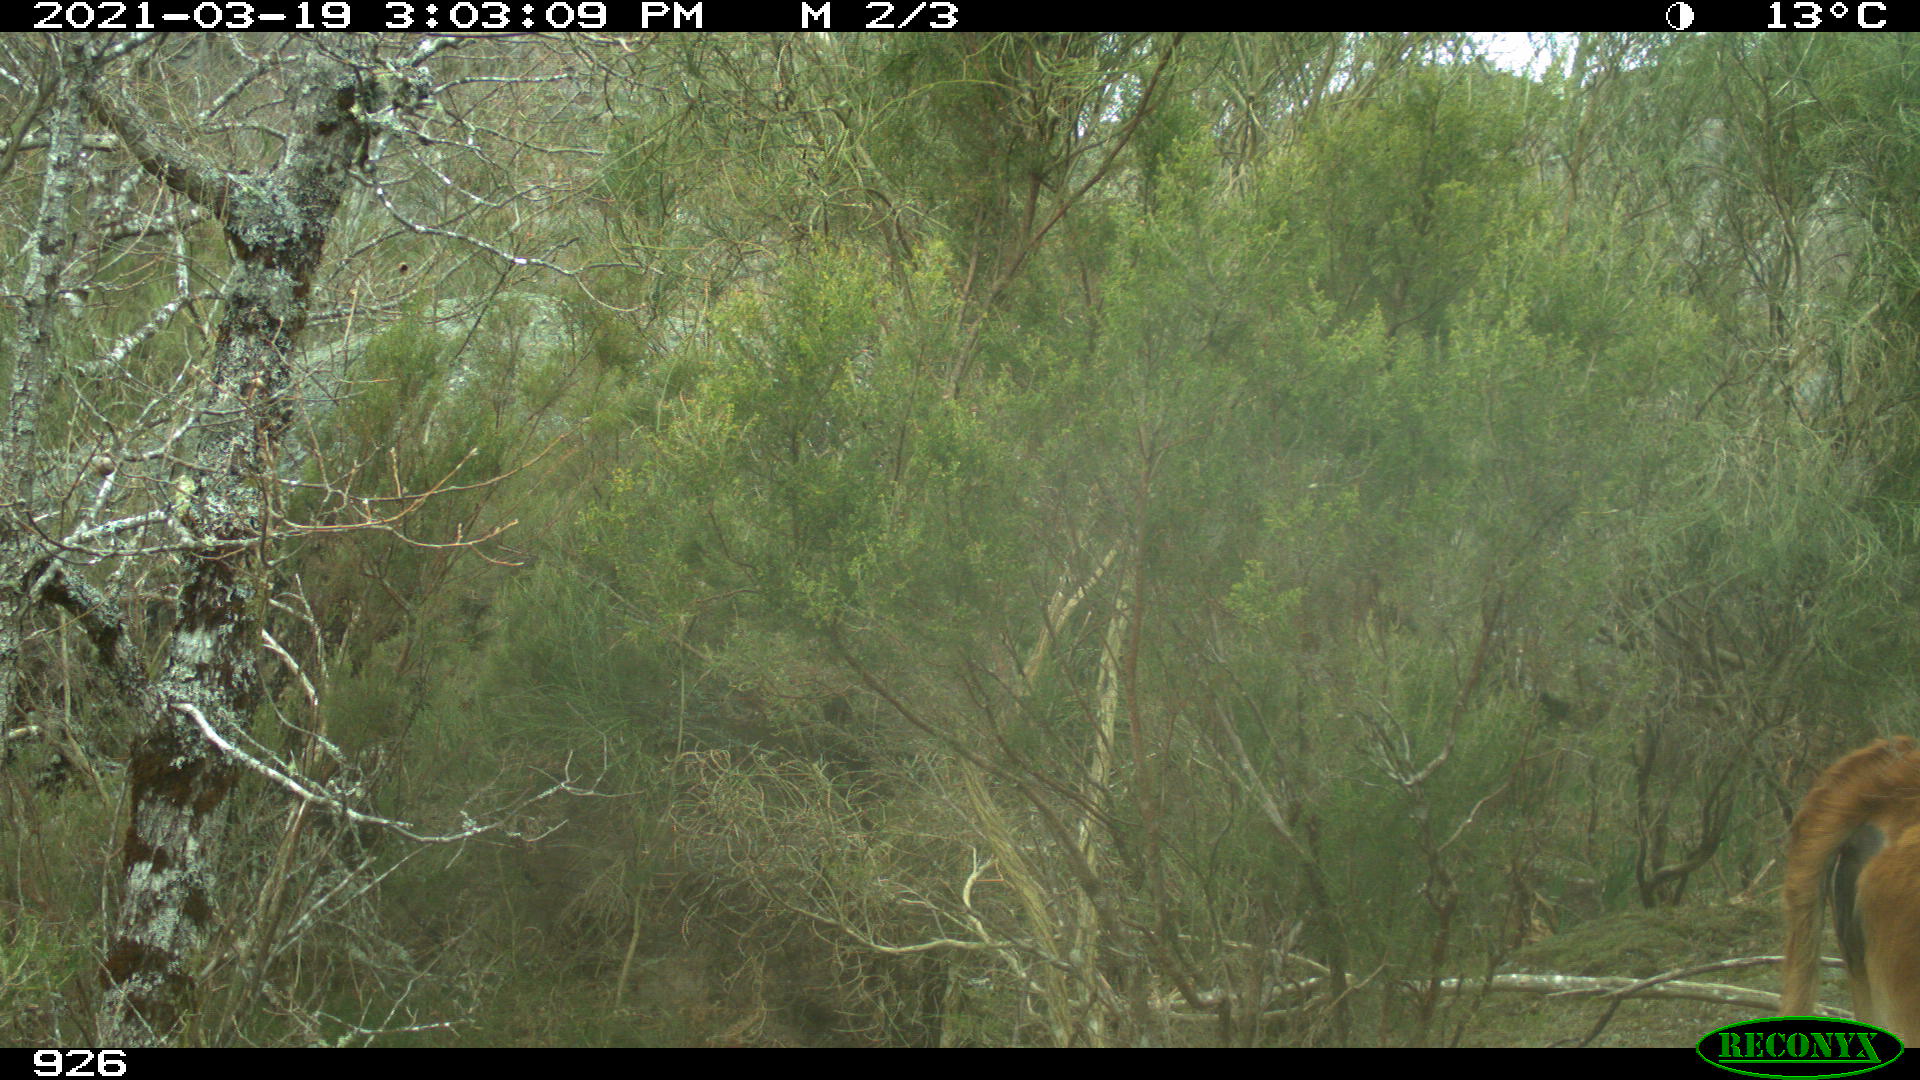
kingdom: Animalia
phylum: Chordata
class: Mammalia
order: Artiodactyla
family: Bovidae
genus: Bos
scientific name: Bos taurus
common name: Domesticated cattle
